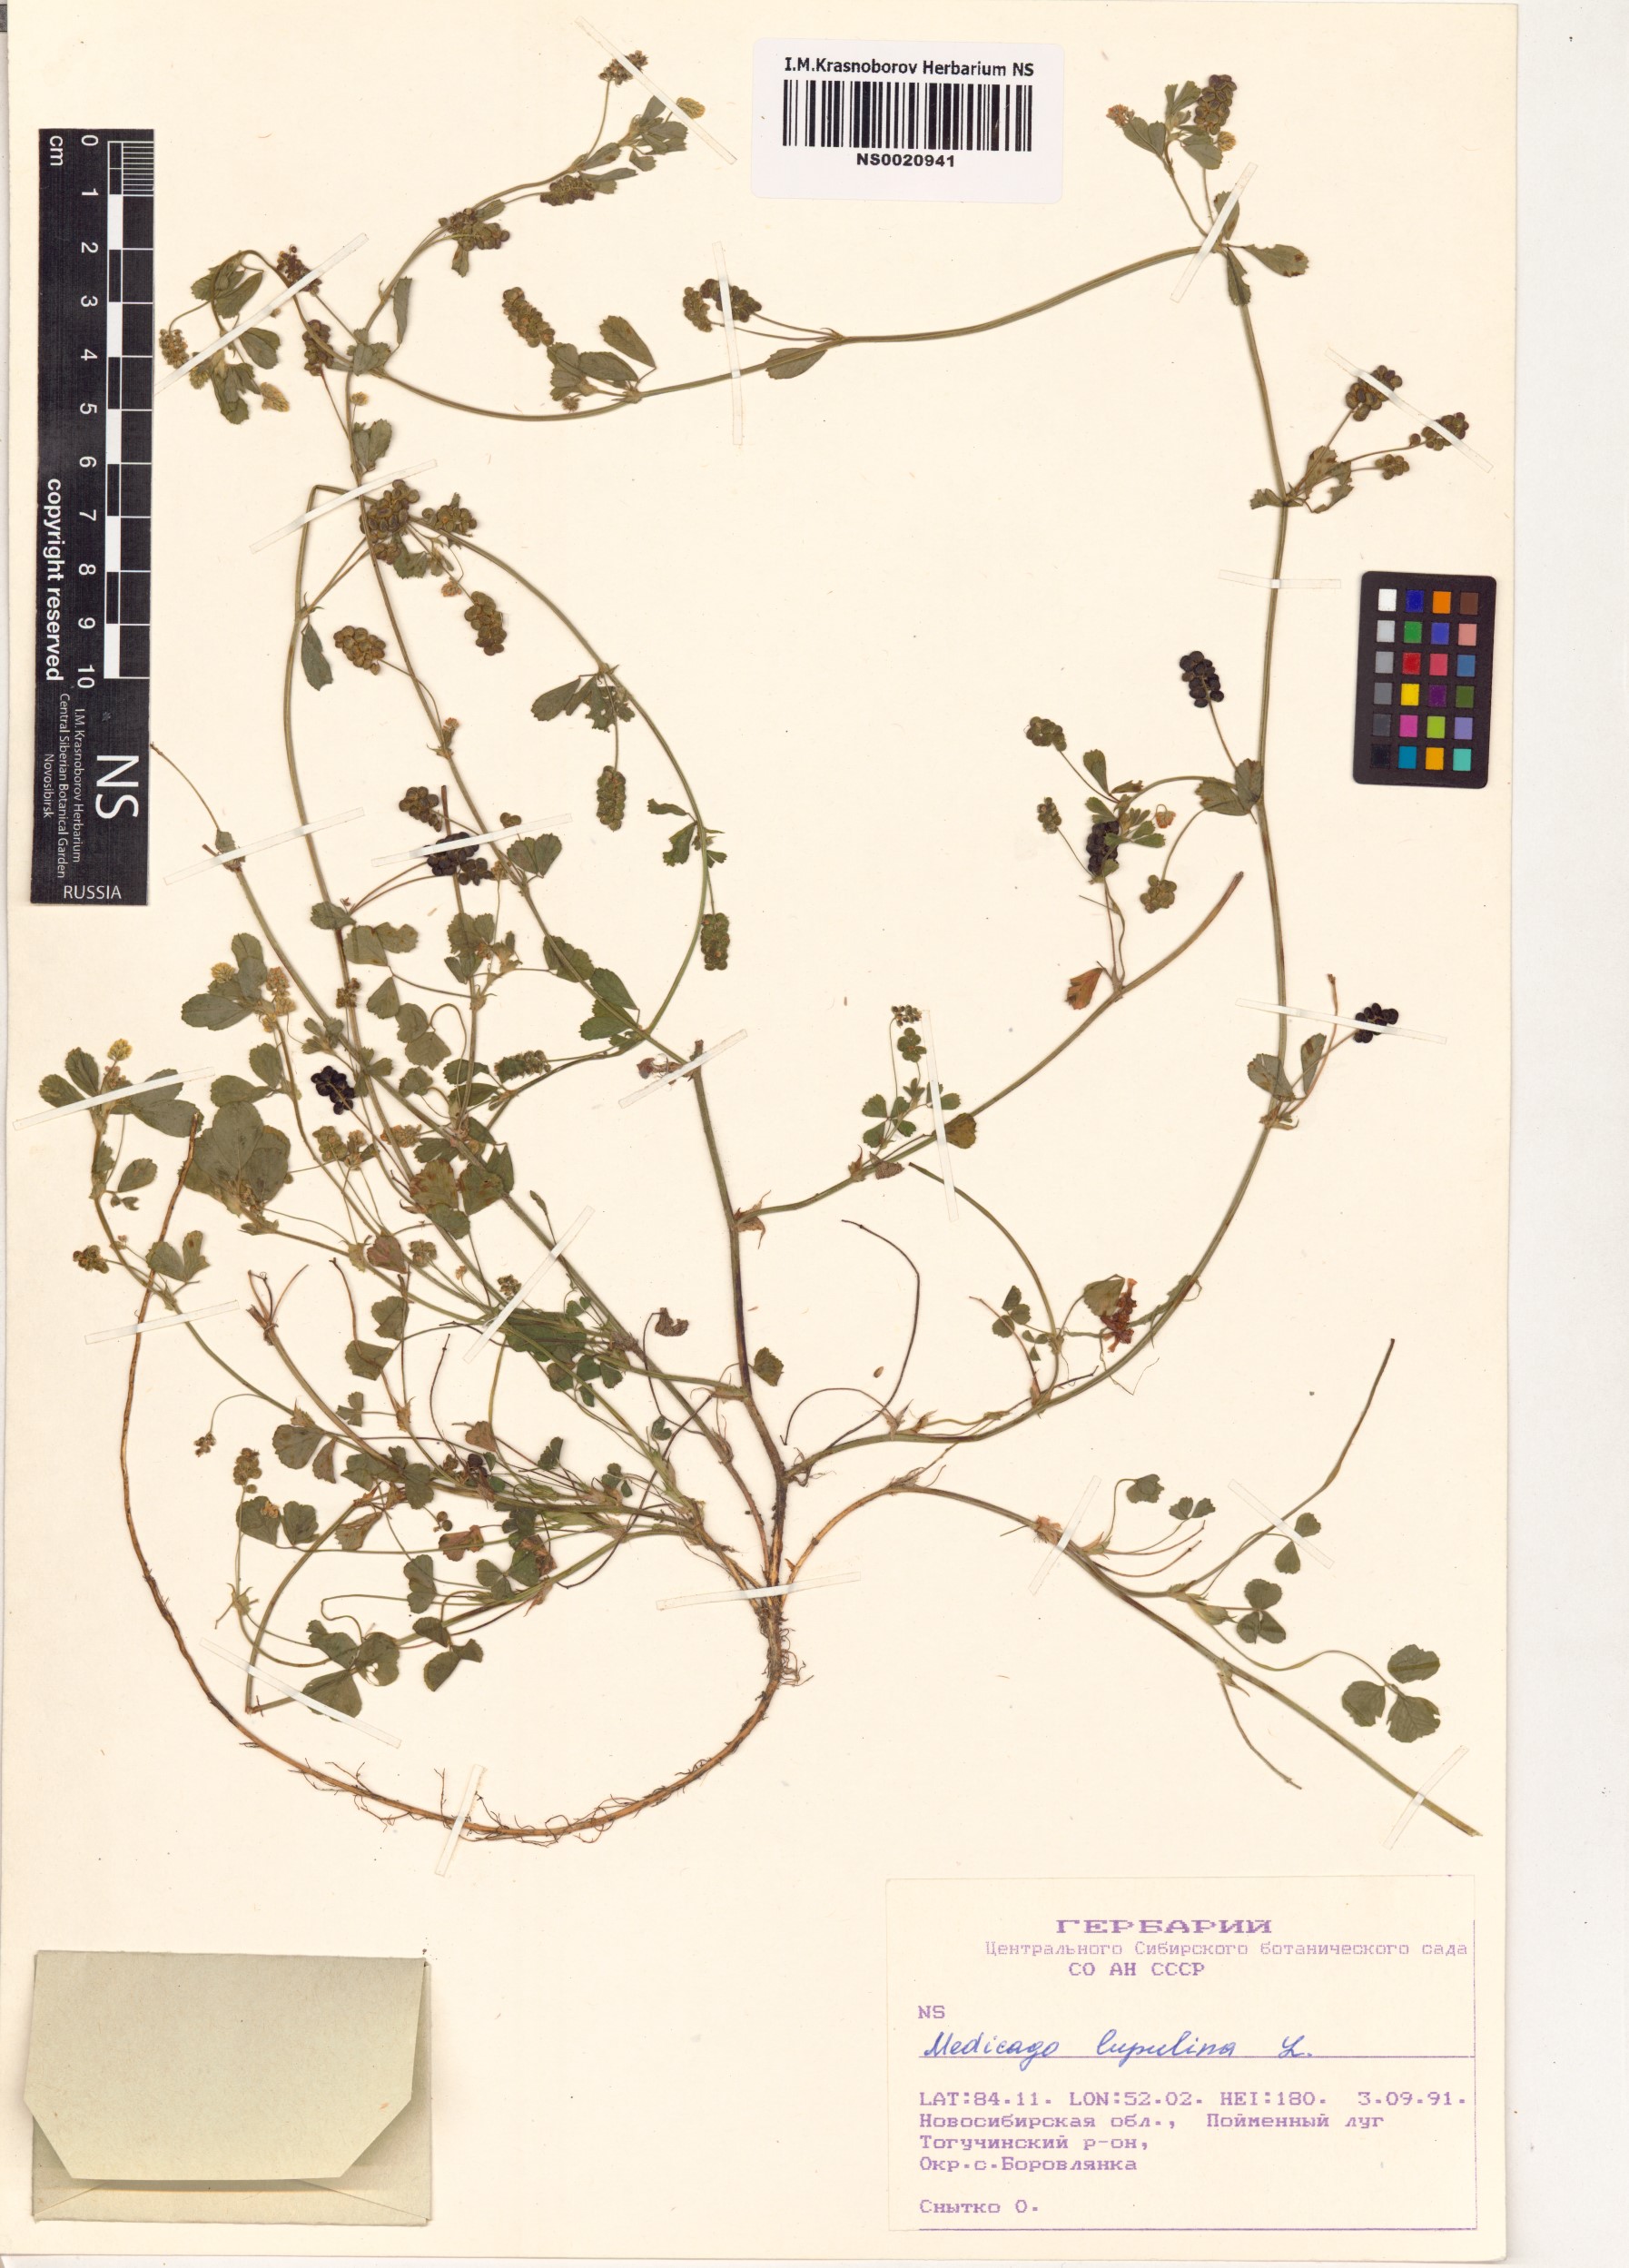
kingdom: Plantae
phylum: Tracheophyta
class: Magnoliopsida
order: Fabales
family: Fabaceae
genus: Medicago
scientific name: Medicago lupulina
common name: Black medick
